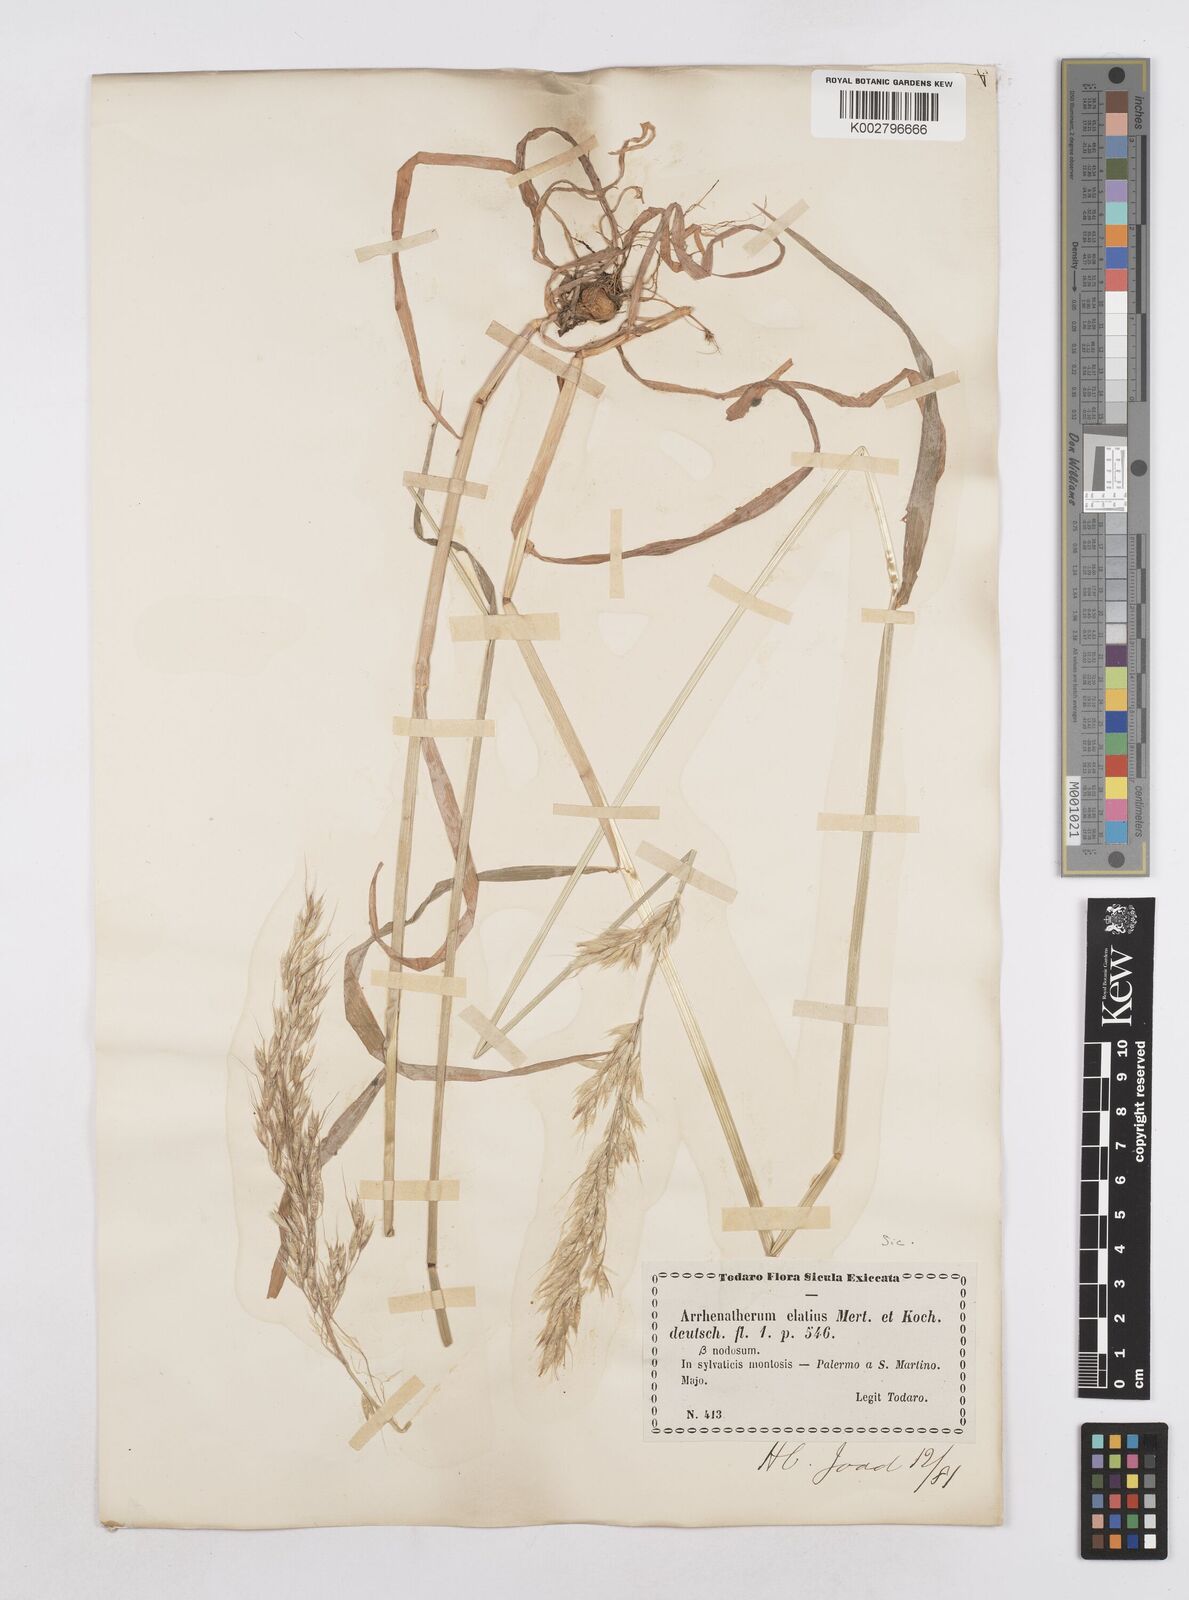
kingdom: Plantae
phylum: Tracheophyta
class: Liliopsida
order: Poales
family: Poaceae
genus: Arrhenatherum
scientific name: Arrhenatherum elatius
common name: Tall oatgrass
